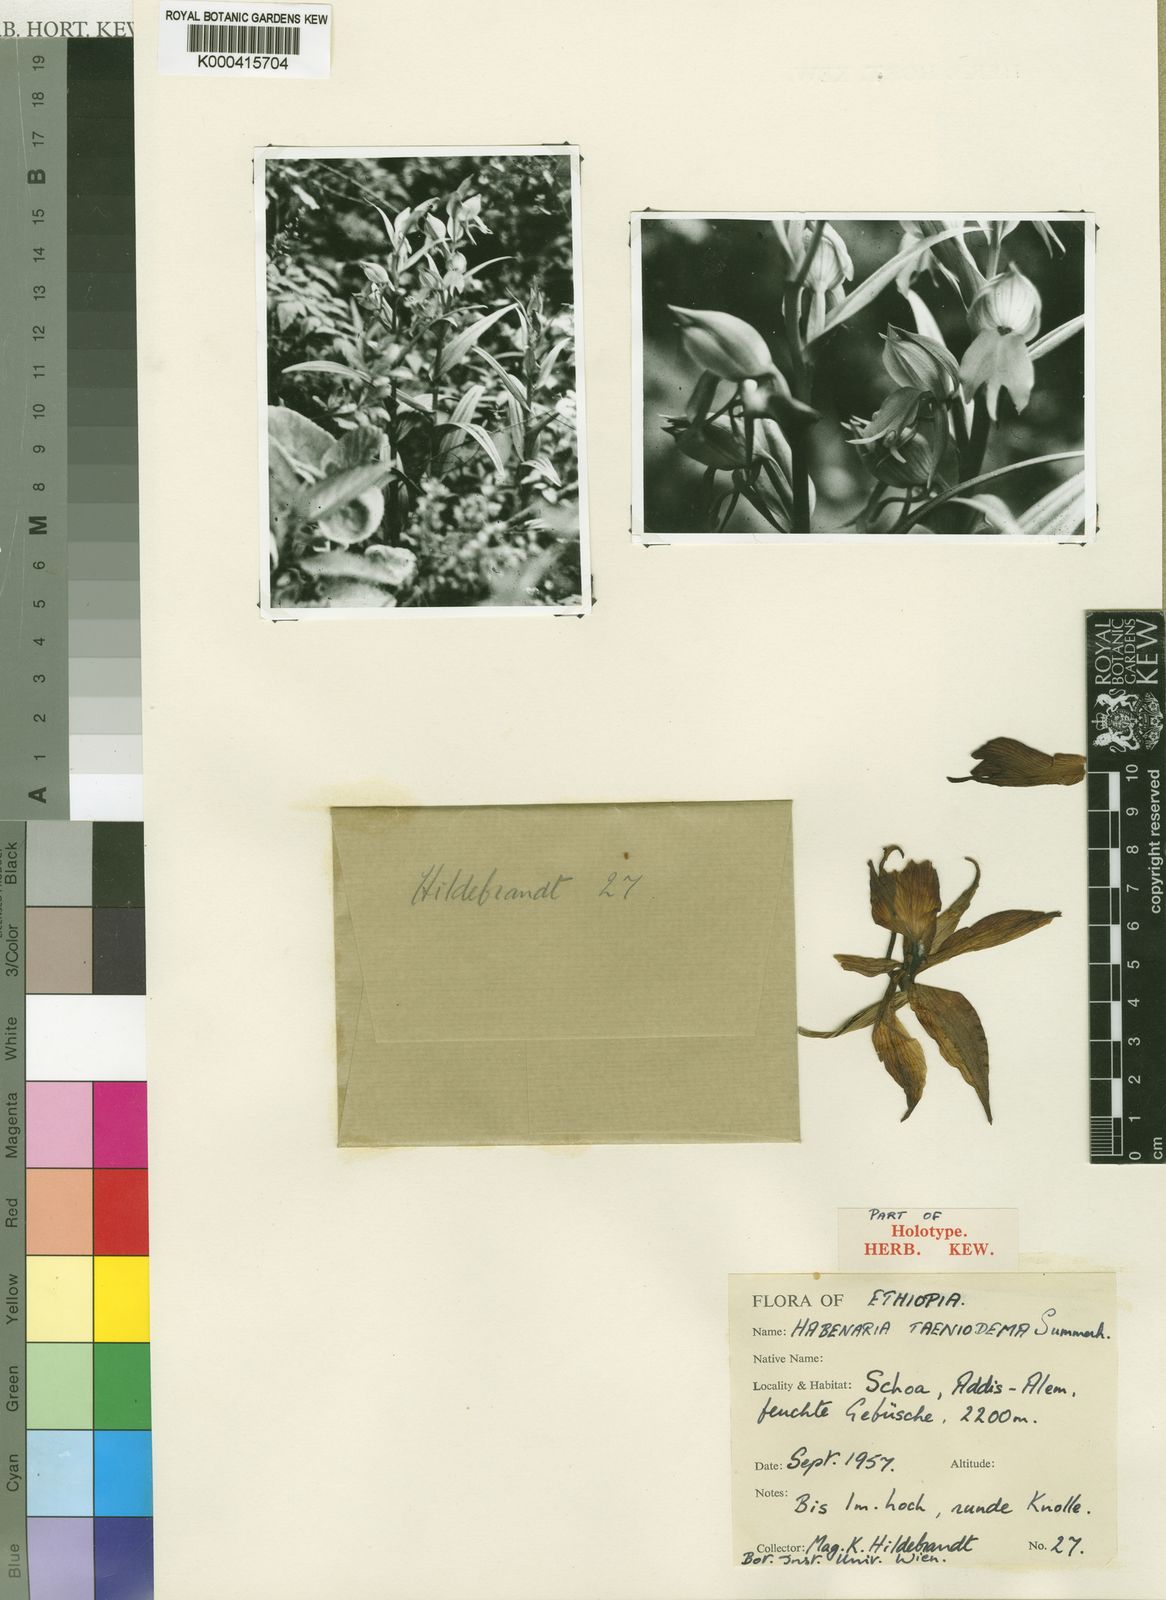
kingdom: Plantae
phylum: Tracheophyta
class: Liliopsida
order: Asparagales
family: Orchidaceae
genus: Habenaria
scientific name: Habenaria taeniodema
